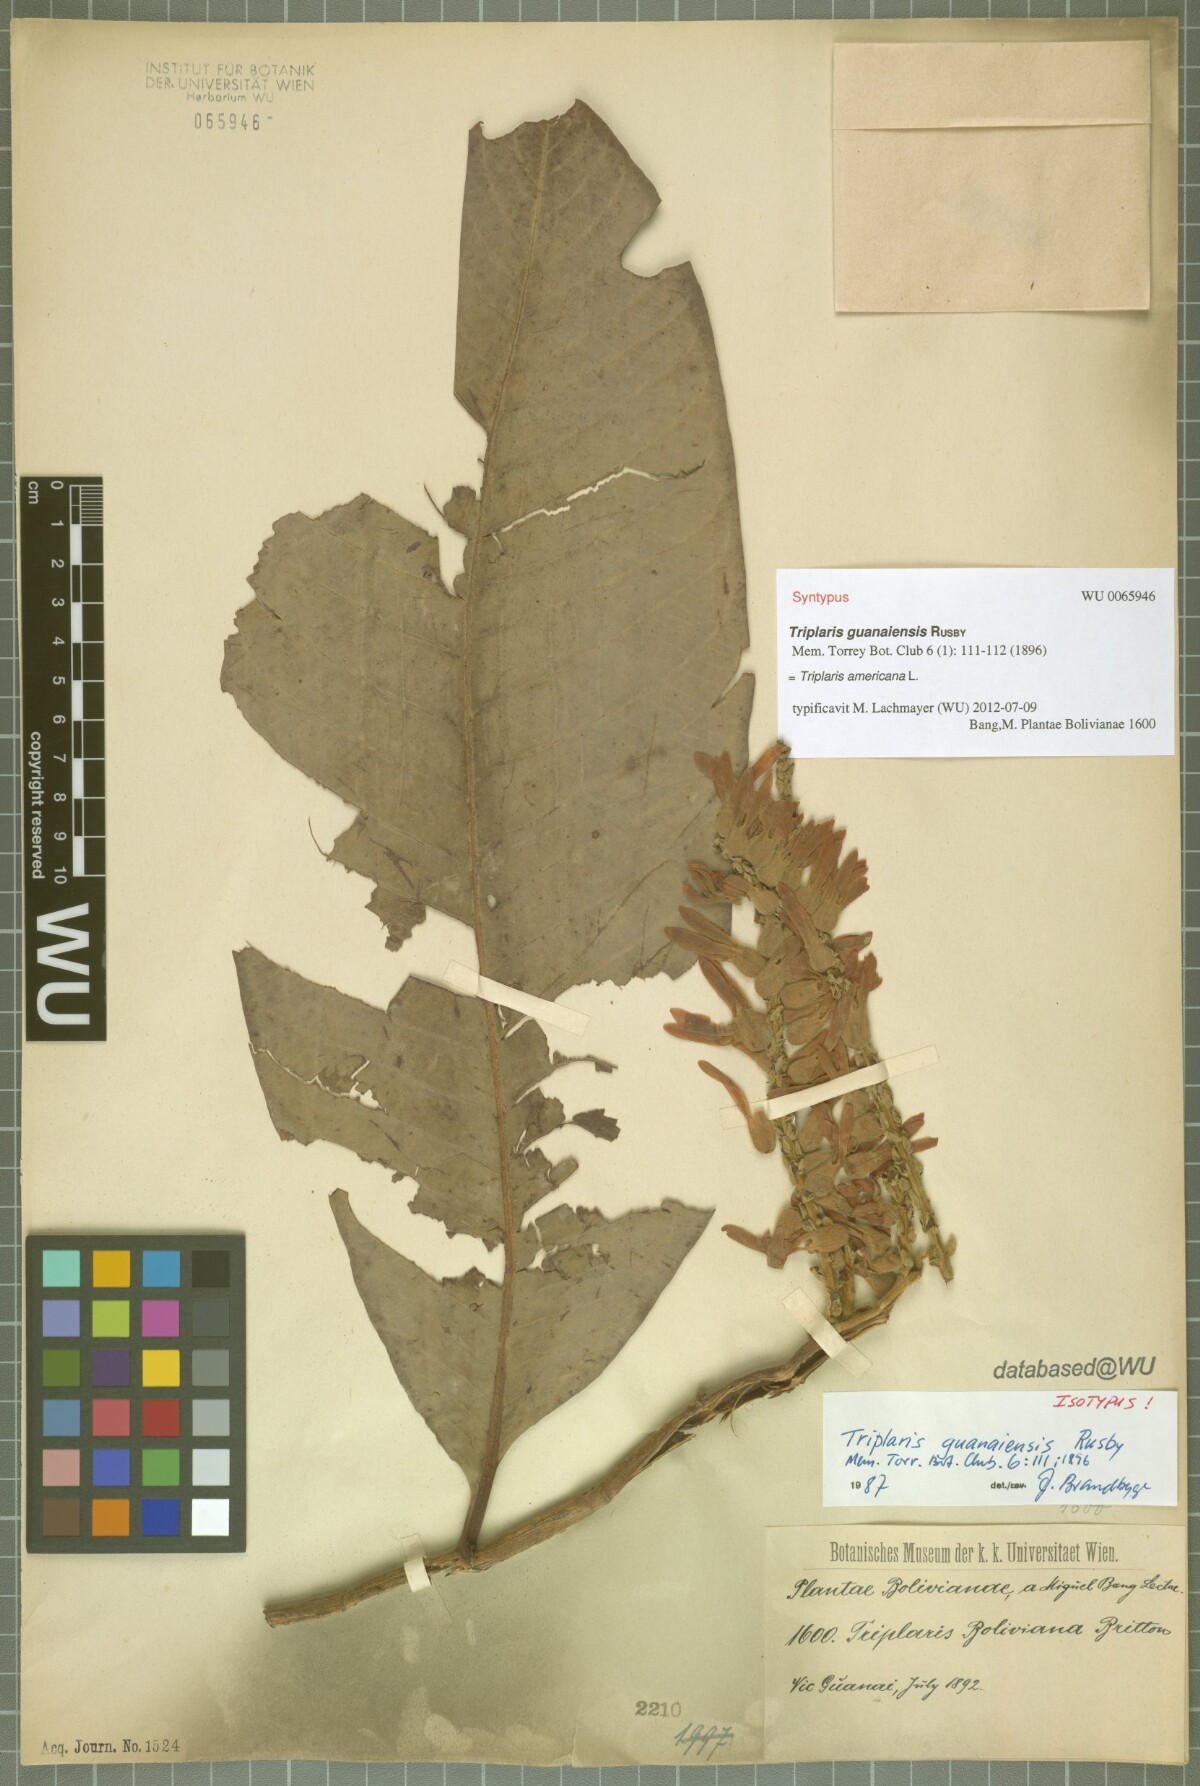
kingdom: Plantae
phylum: Tracheophyta
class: Magnoliopsida
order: Caryophyllales
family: Polygonaceae
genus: Triplaris
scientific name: Triplaris americana
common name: Ant-tree
